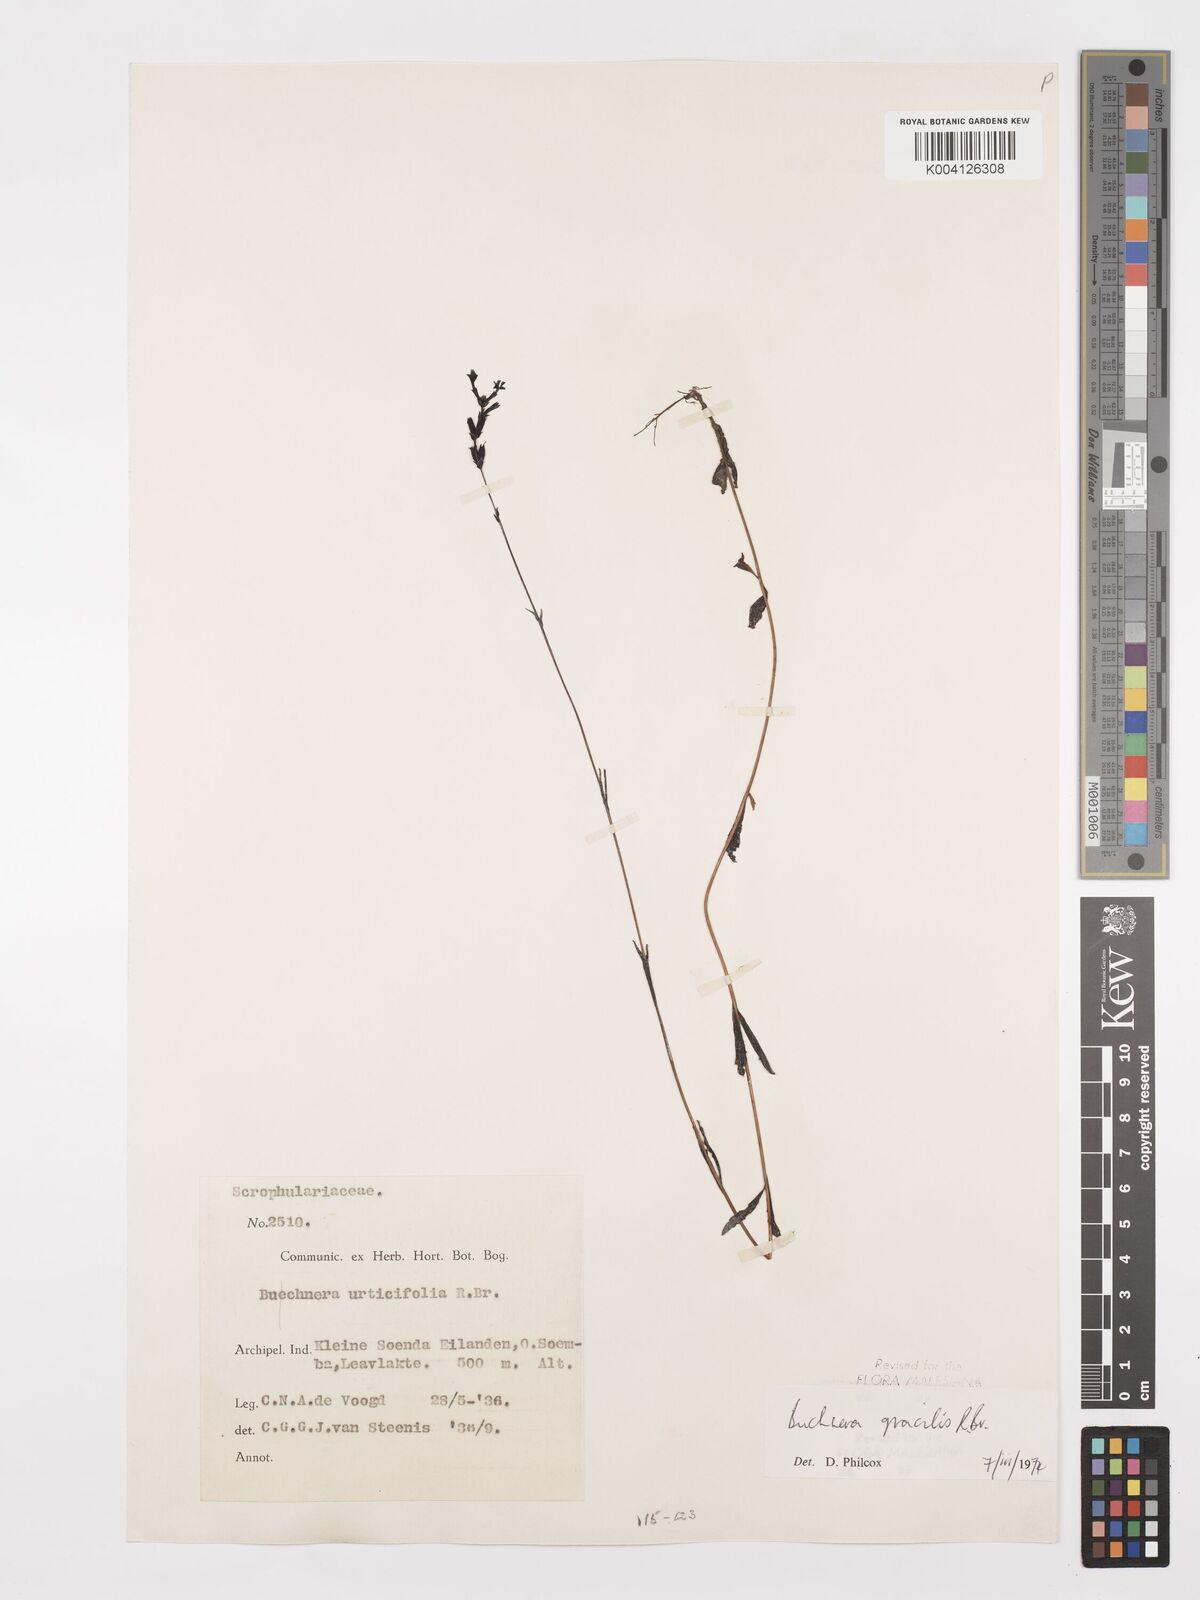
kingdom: Plantae
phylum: Tracheophyta
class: Magnoliopsida
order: Lamiales
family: Orobanchaceae
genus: Buchnera
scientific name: Buchnera gracilis
